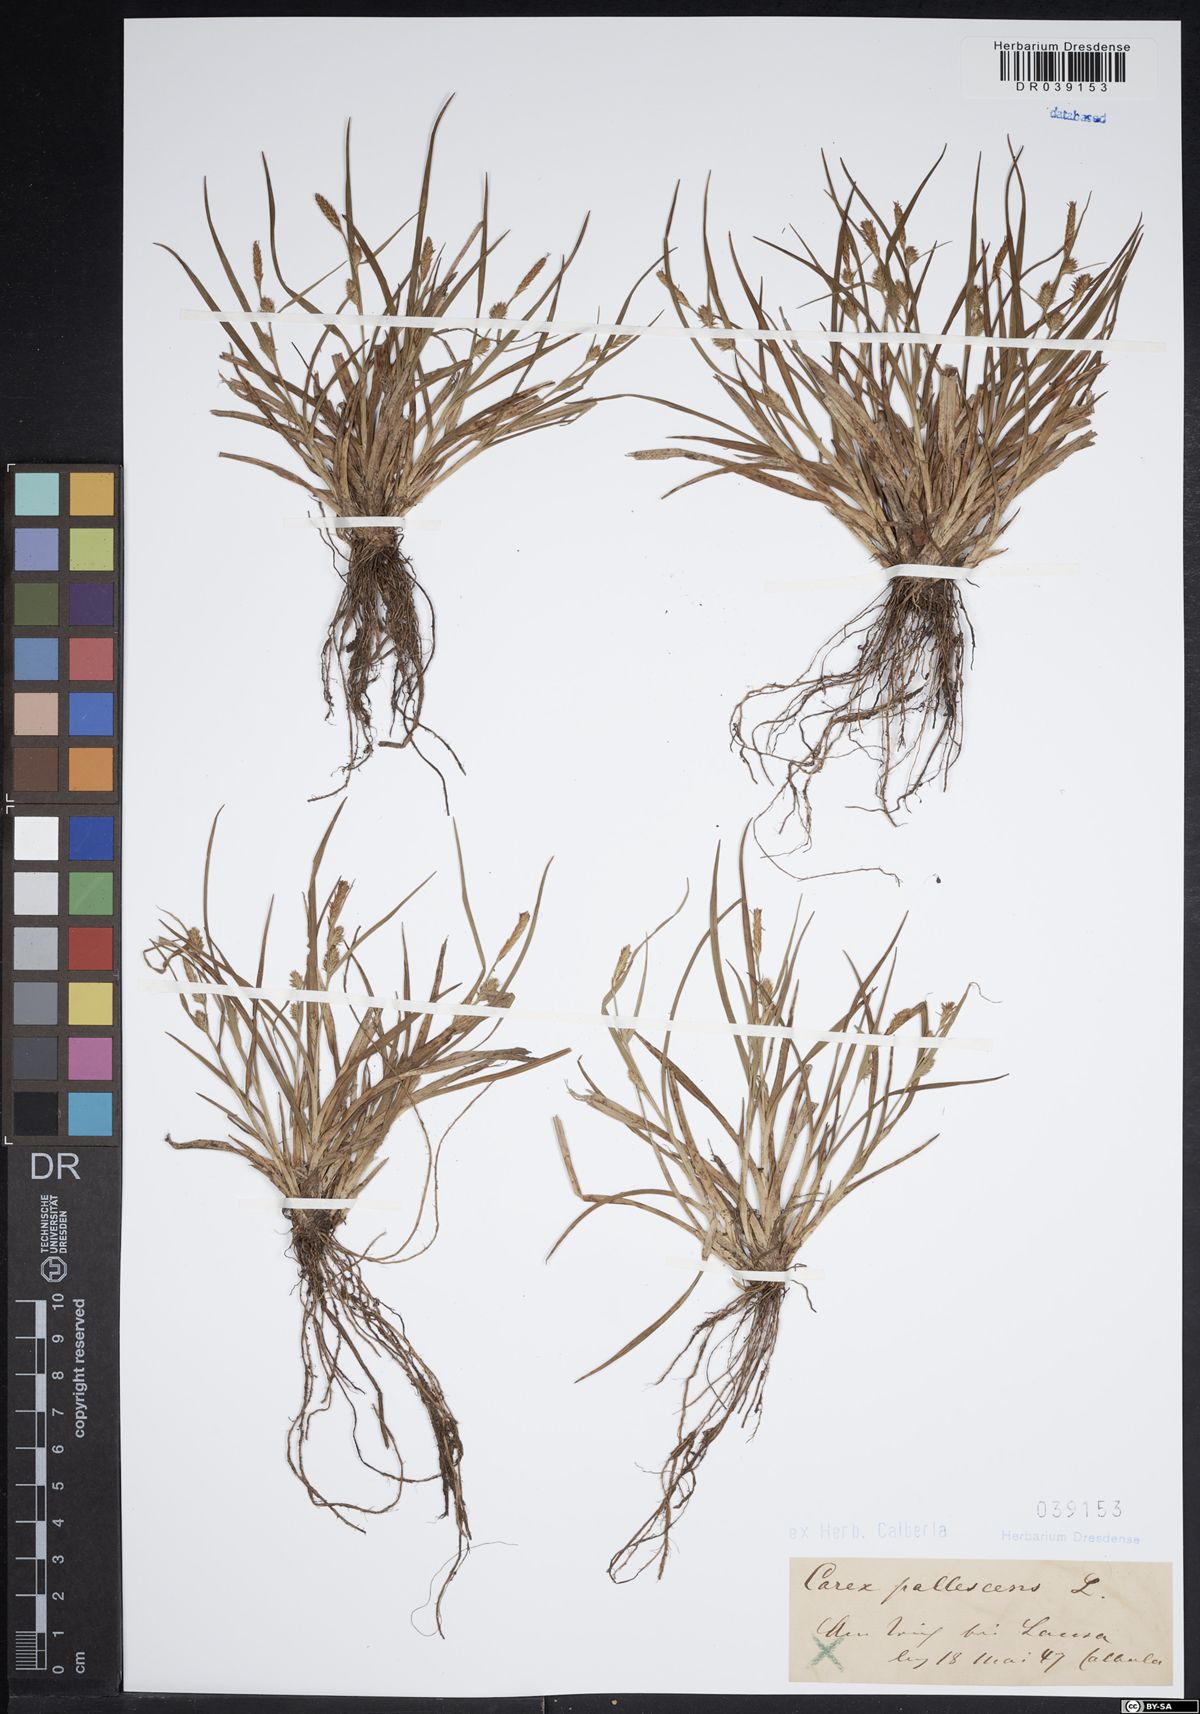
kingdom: Plantae
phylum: Tracheophyta
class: Liliopsida
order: Poales
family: Cyperaceae
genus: Carex
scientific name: Carex pallescens
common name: Pale sedge
